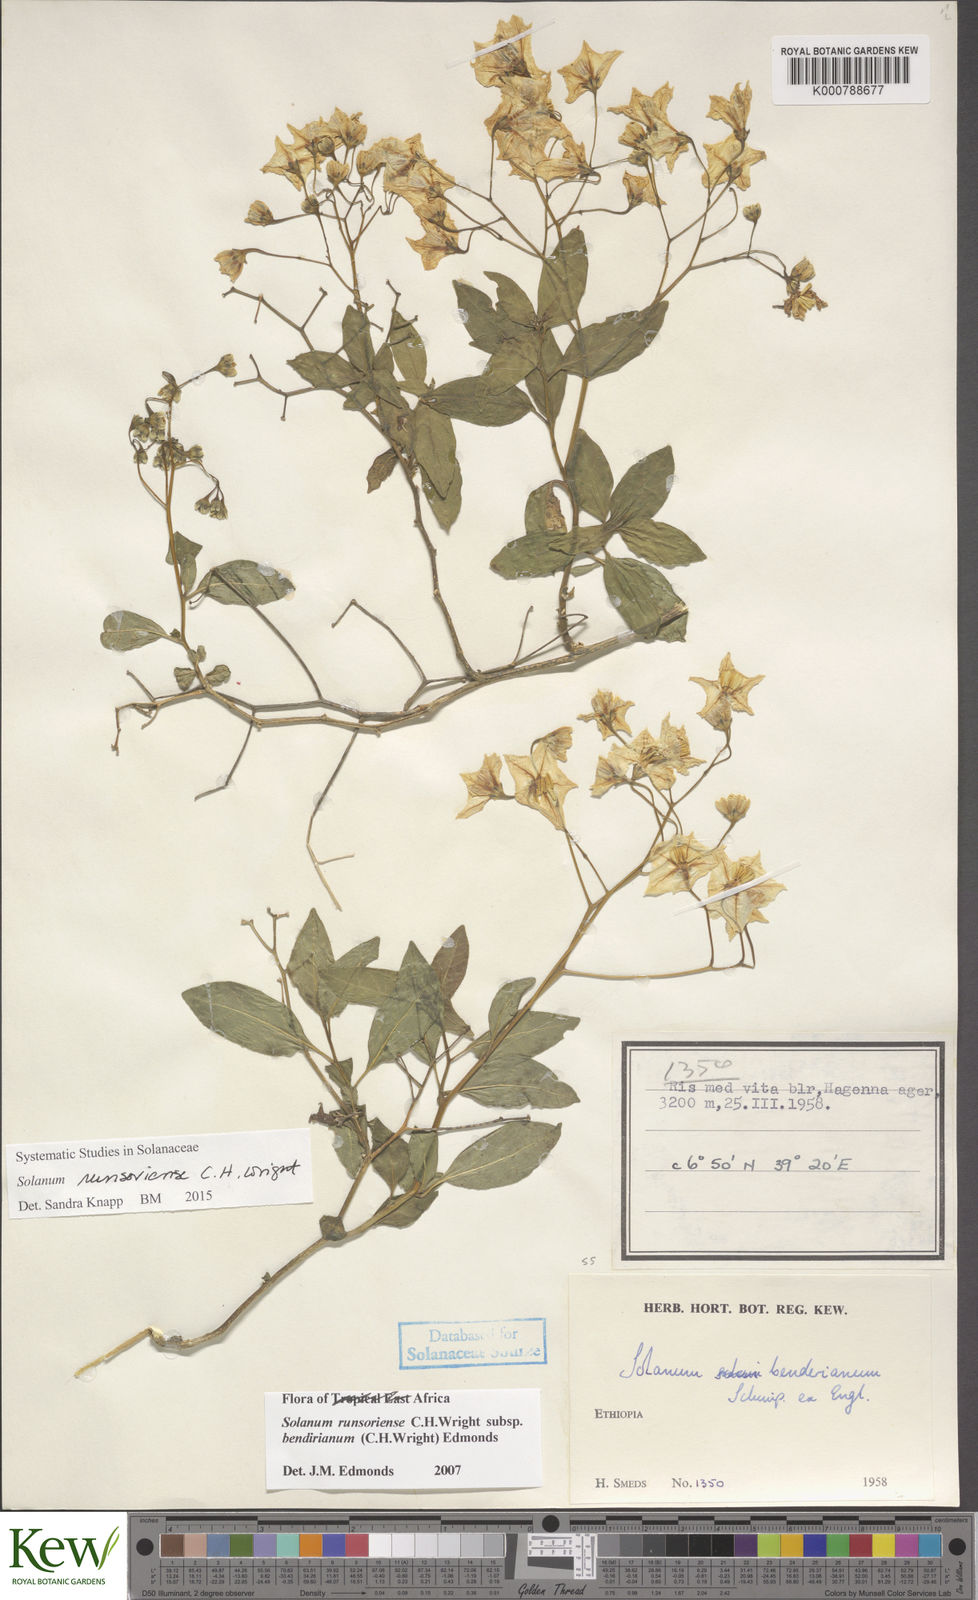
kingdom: Plantae
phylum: Tracheophyta
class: Magnoliopsida
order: Solanales
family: Solanaceae
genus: Solanum
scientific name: Solanum runsoriense
